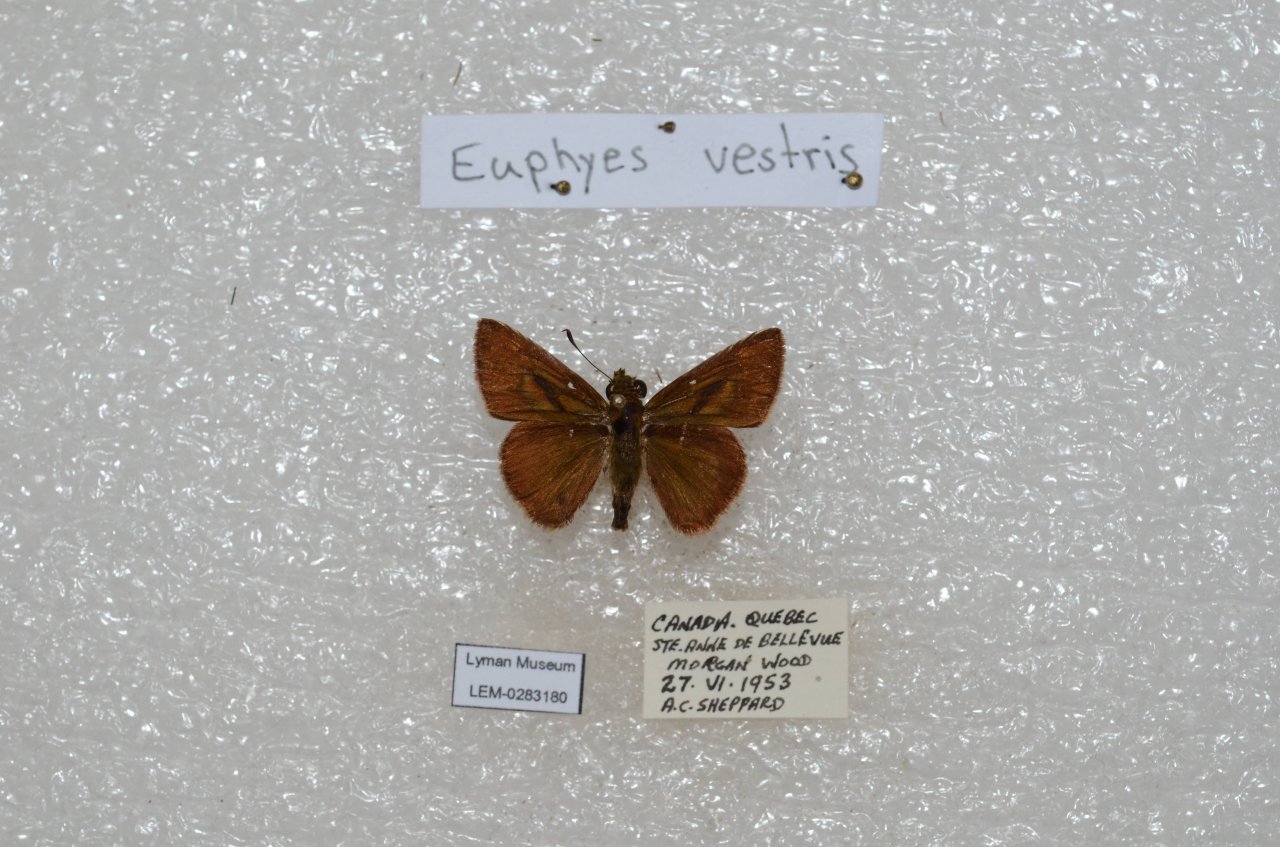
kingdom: Animalia
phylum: Arthropoda
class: Insecta
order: Lepidoptera
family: Hesperiidae
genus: Euphyes
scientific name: Euphyes vestris
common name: Dun Skipper
